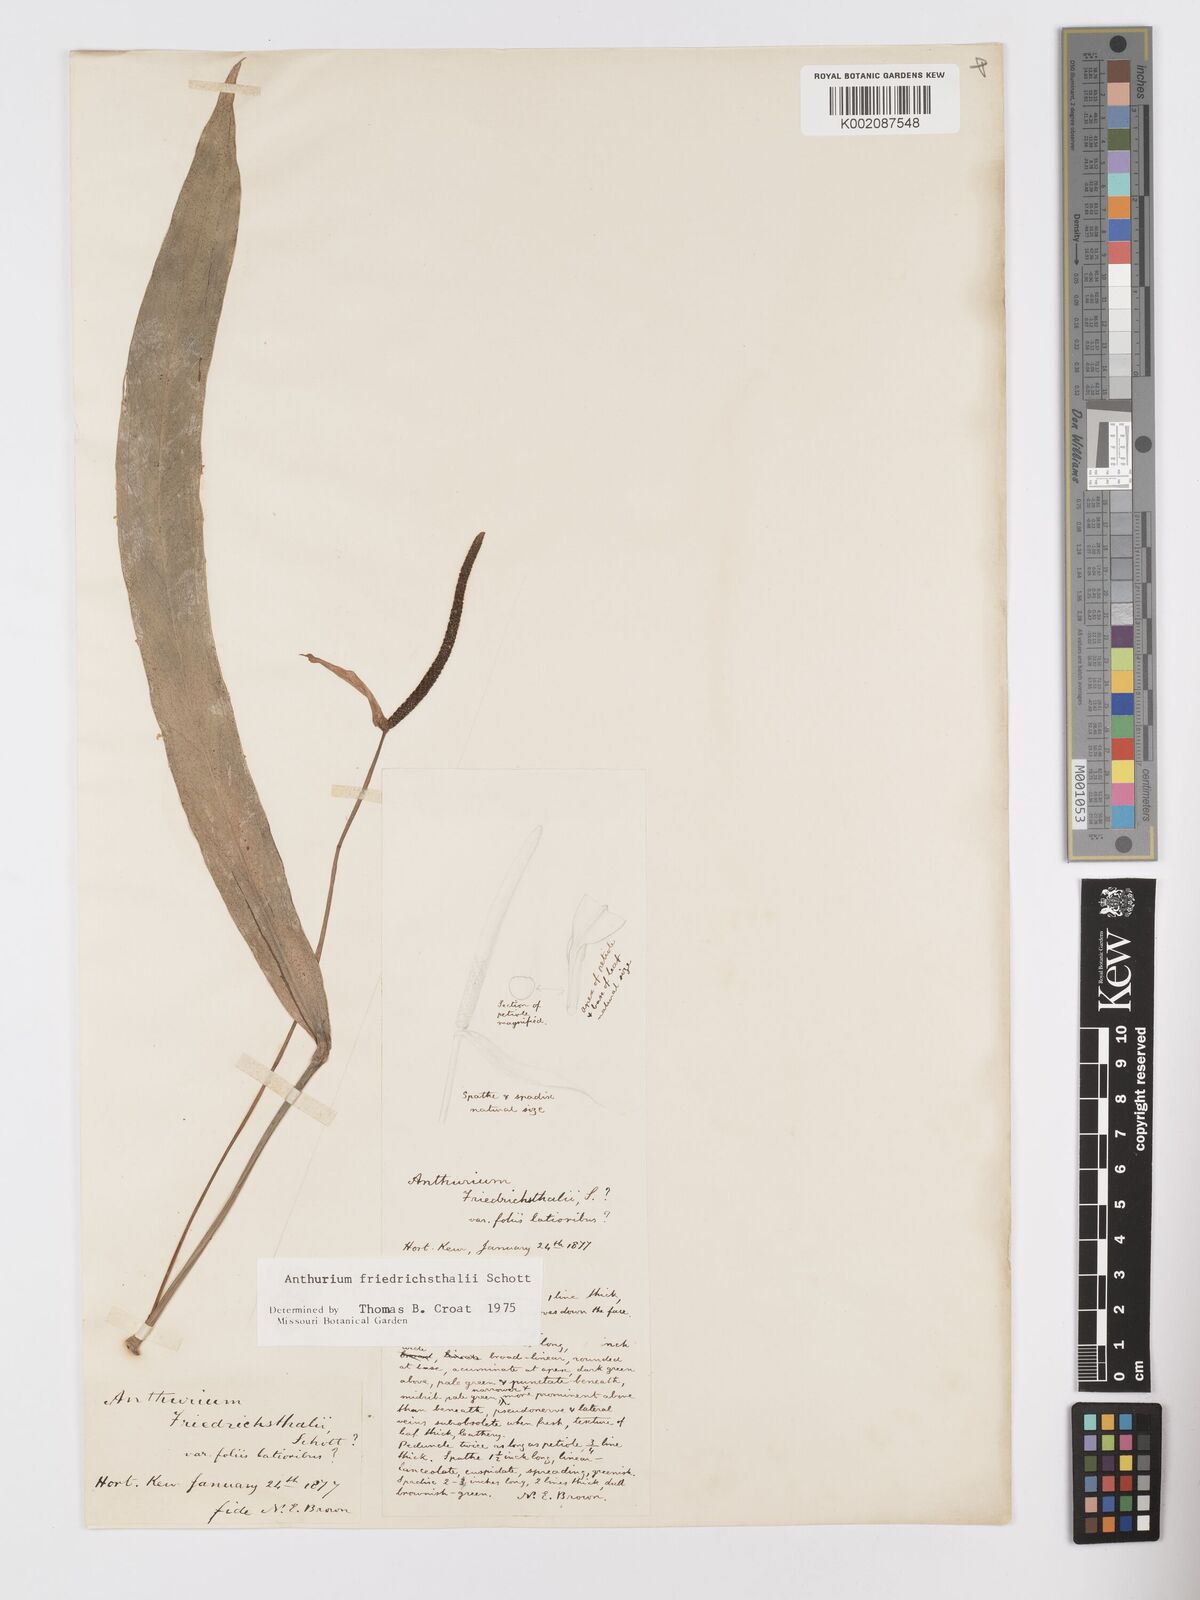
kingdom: Plantae
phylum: Tracheophyta
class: Liliopsida
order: Alismatales
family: Araceae
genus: Anthurium
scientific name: Anthurium friedrichsthalii
